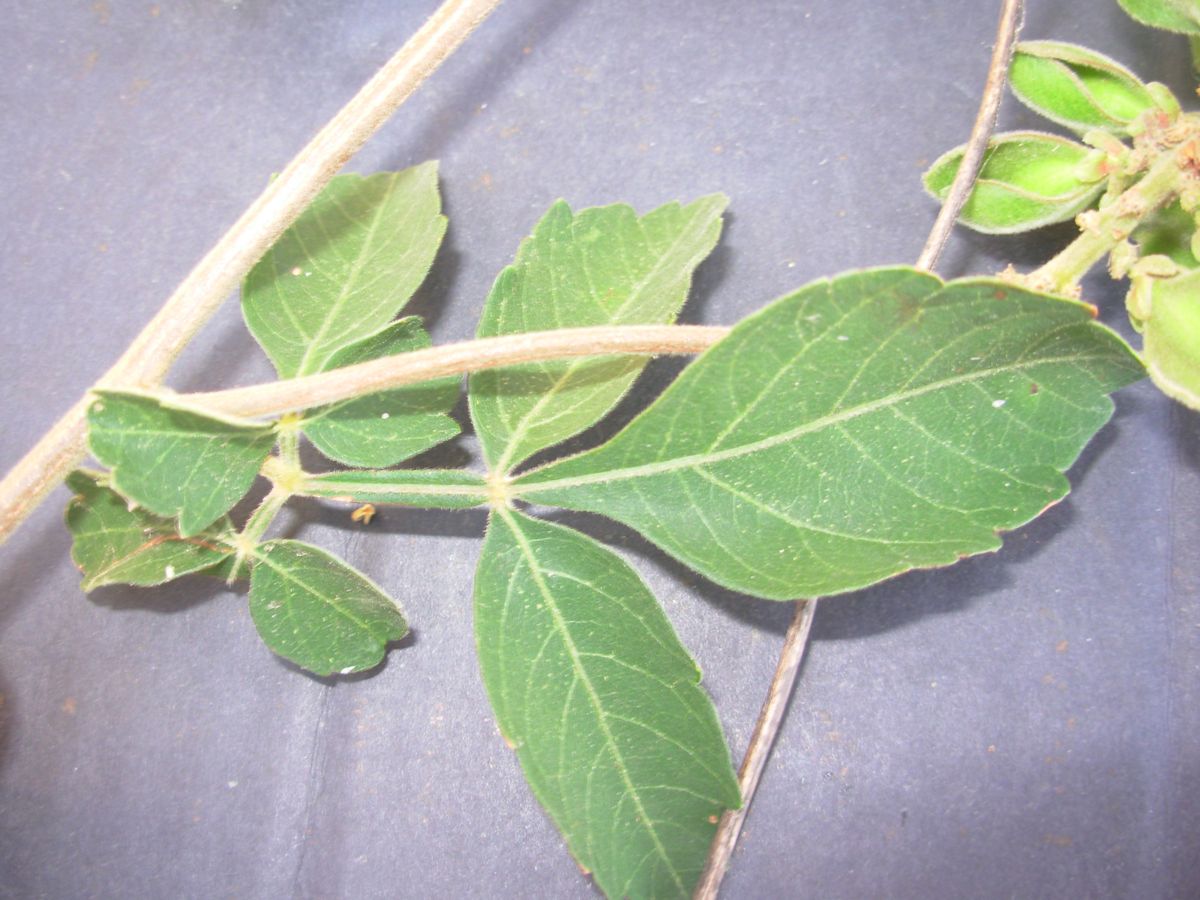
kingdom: Plantae
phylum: Tracheophyta
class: Magnoliopsida
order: Sapindales
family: Sapindaceae
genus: Paullinia
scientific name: Paullinia fuscescens
